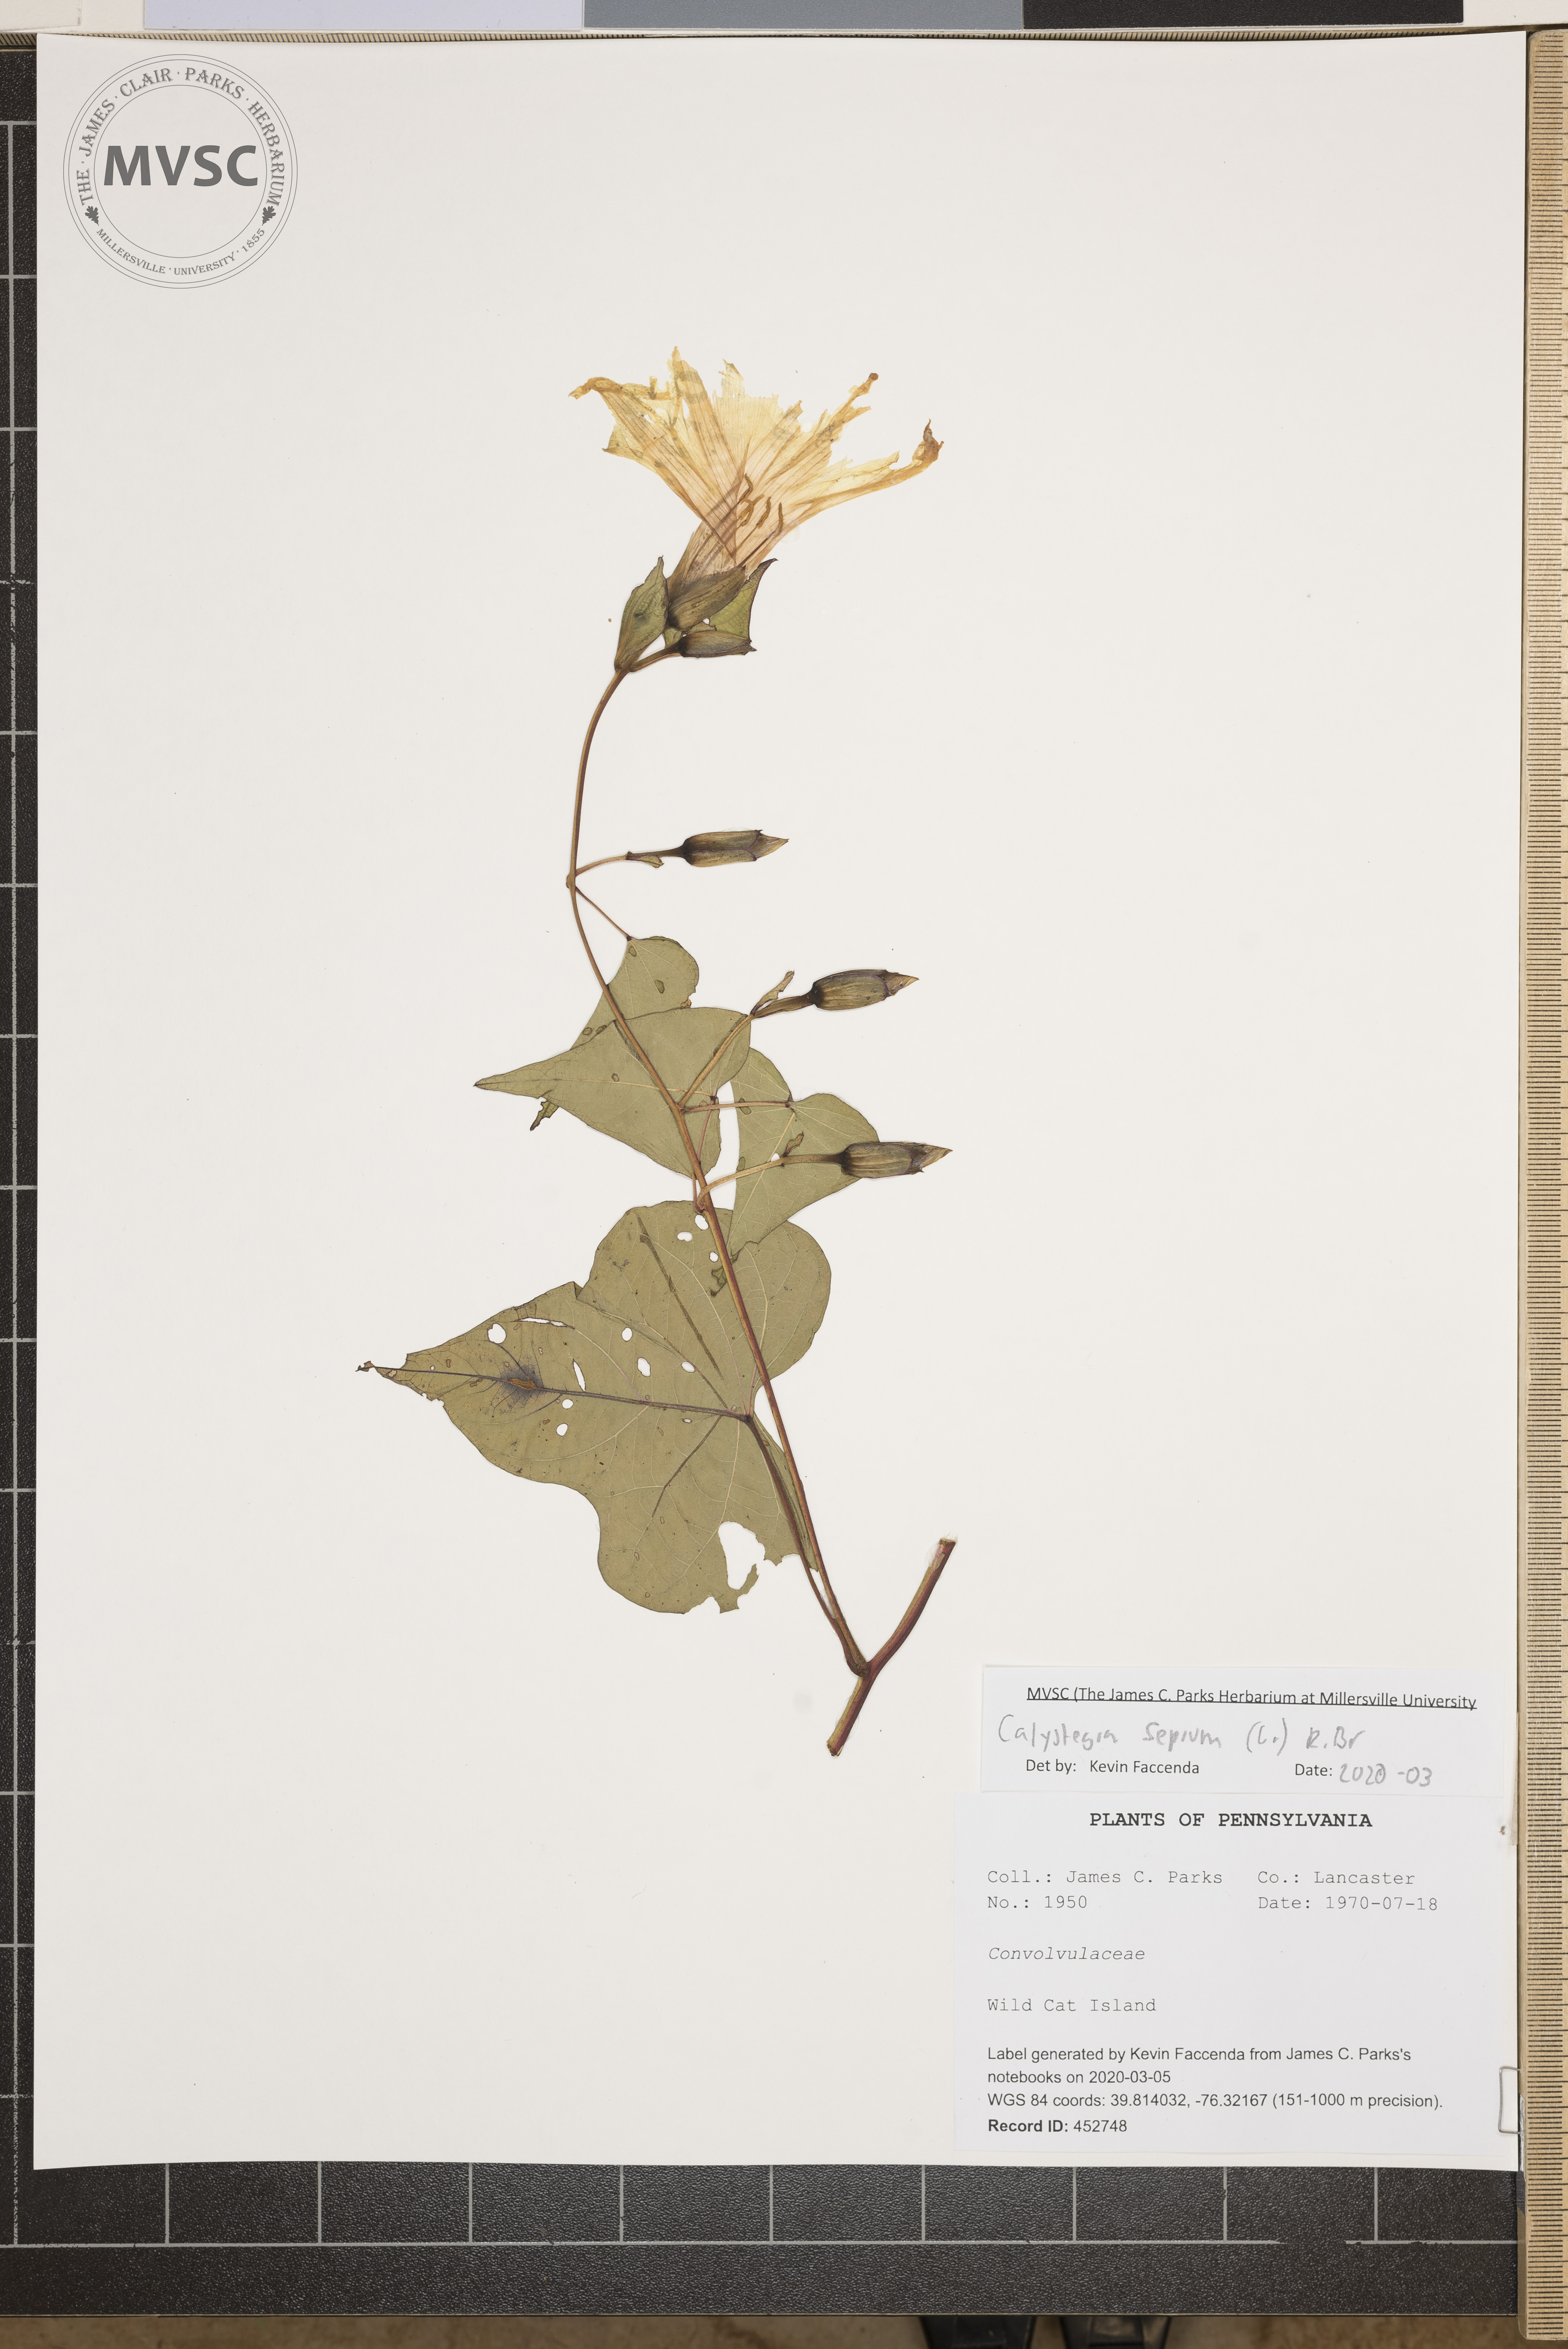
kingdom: Plantae
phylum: Tracheophyta
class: Magnoliopsida
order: Solanales
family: Convolvulaceae
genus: Calystegia
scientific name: Calystegia sepium
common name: Hedge bindweed
